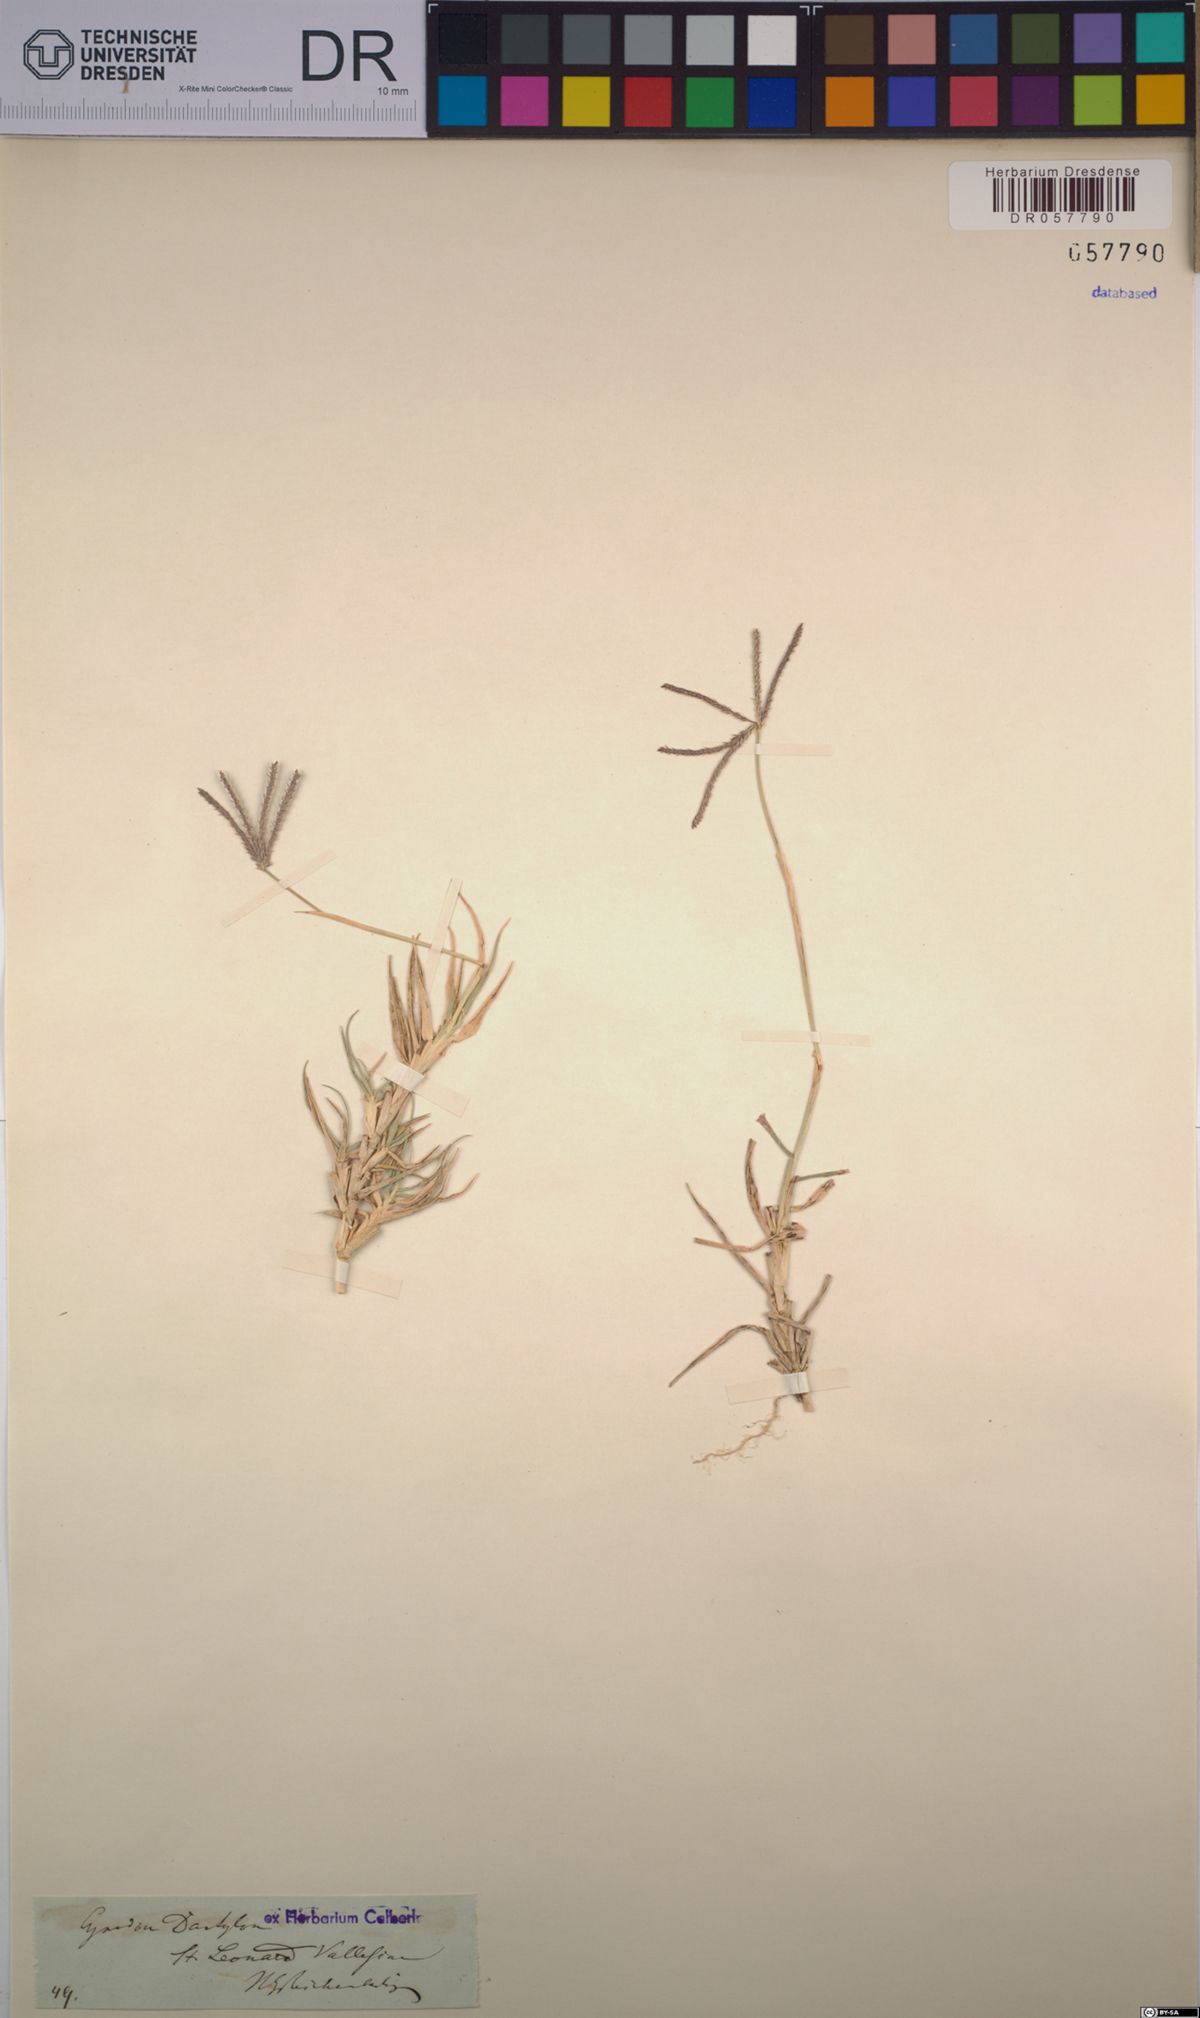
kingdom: Plantae
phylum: Tracheophyta
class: Liliopsida
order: Poales
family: Poaceae
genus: Cynodon
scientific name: Cynodon dactylon
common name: Bermuda grass
